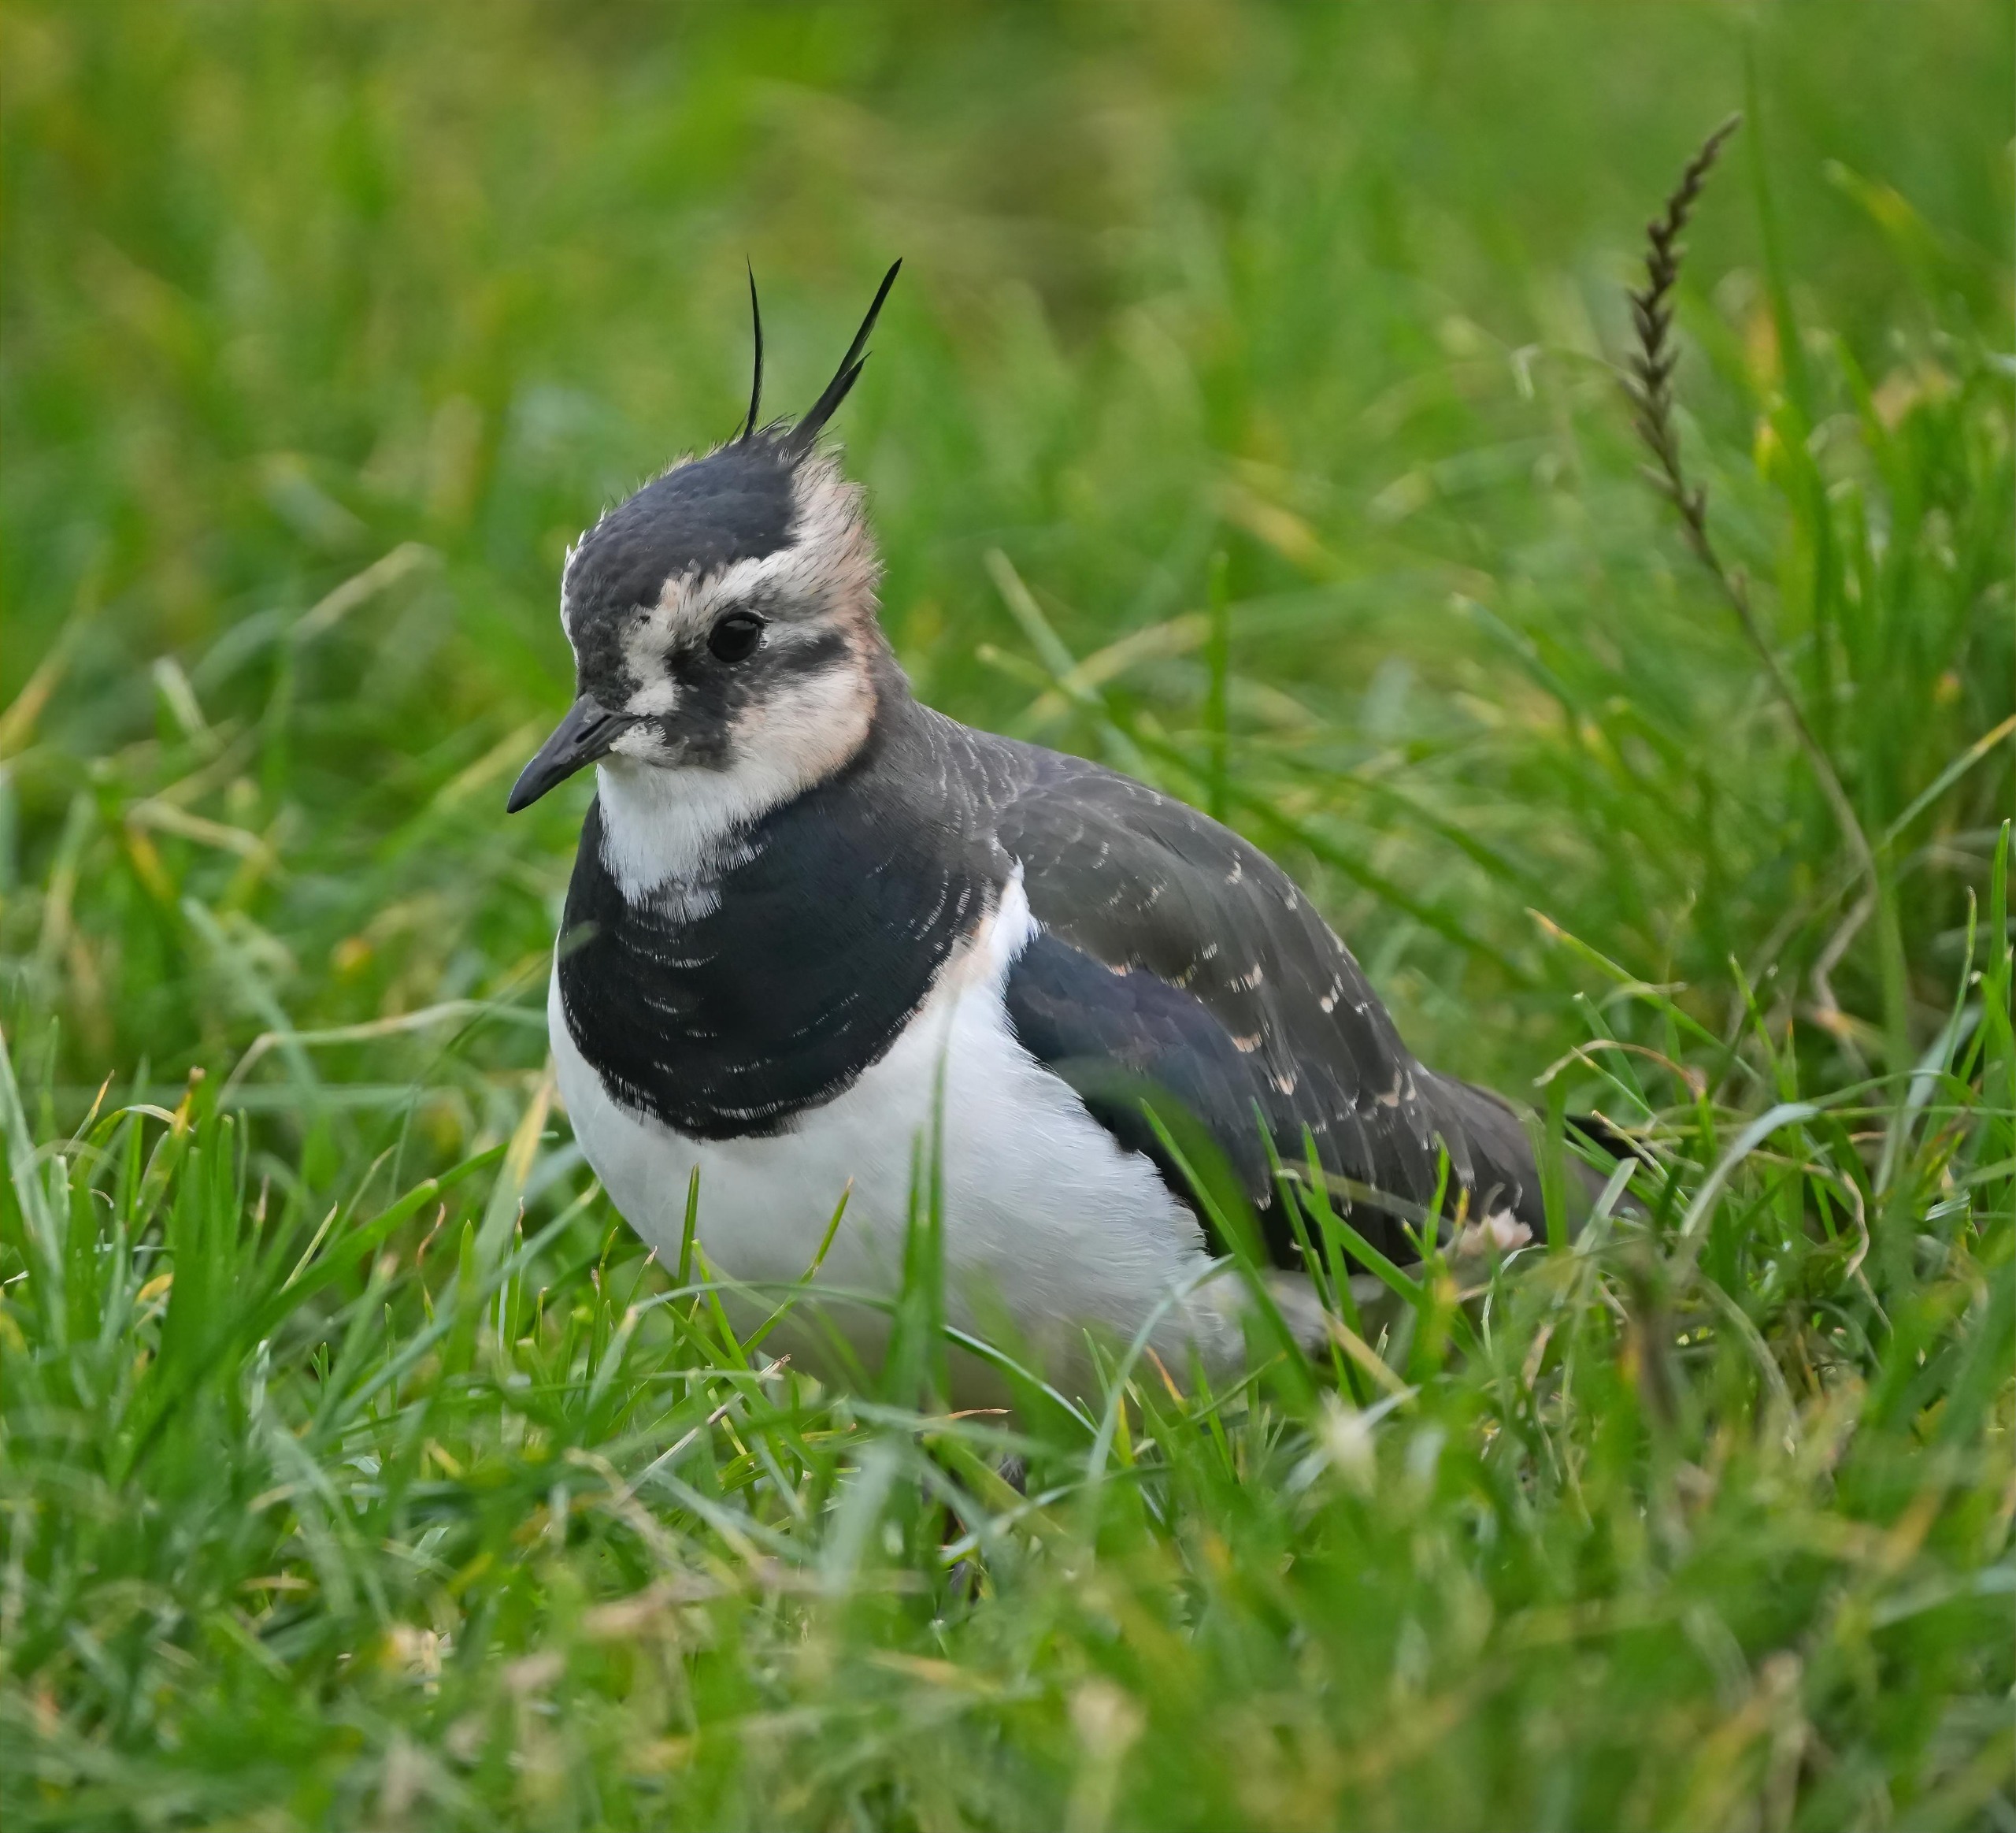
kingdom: Animalia
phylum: Chordata
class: Aves
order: Charadriiformes
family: Charadriidae
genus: Vanellus
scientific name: Vanellus vanellus
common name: Vibe
